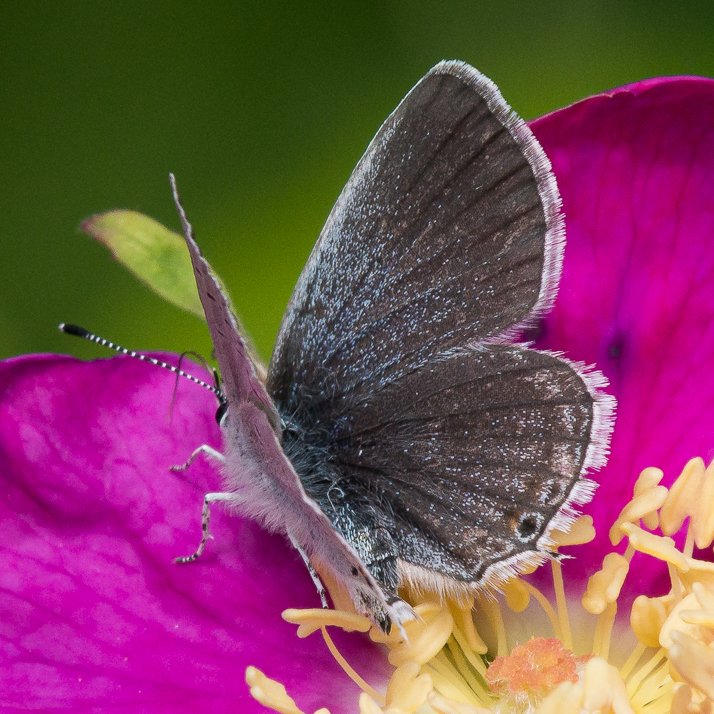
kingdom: Animalia
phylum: Arthropoda
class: Insecta
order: Lepidoptera
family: Lycaenidae
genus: Elkalyce
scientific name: Elkalyce amyntula
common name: Western Tailed-Blue
